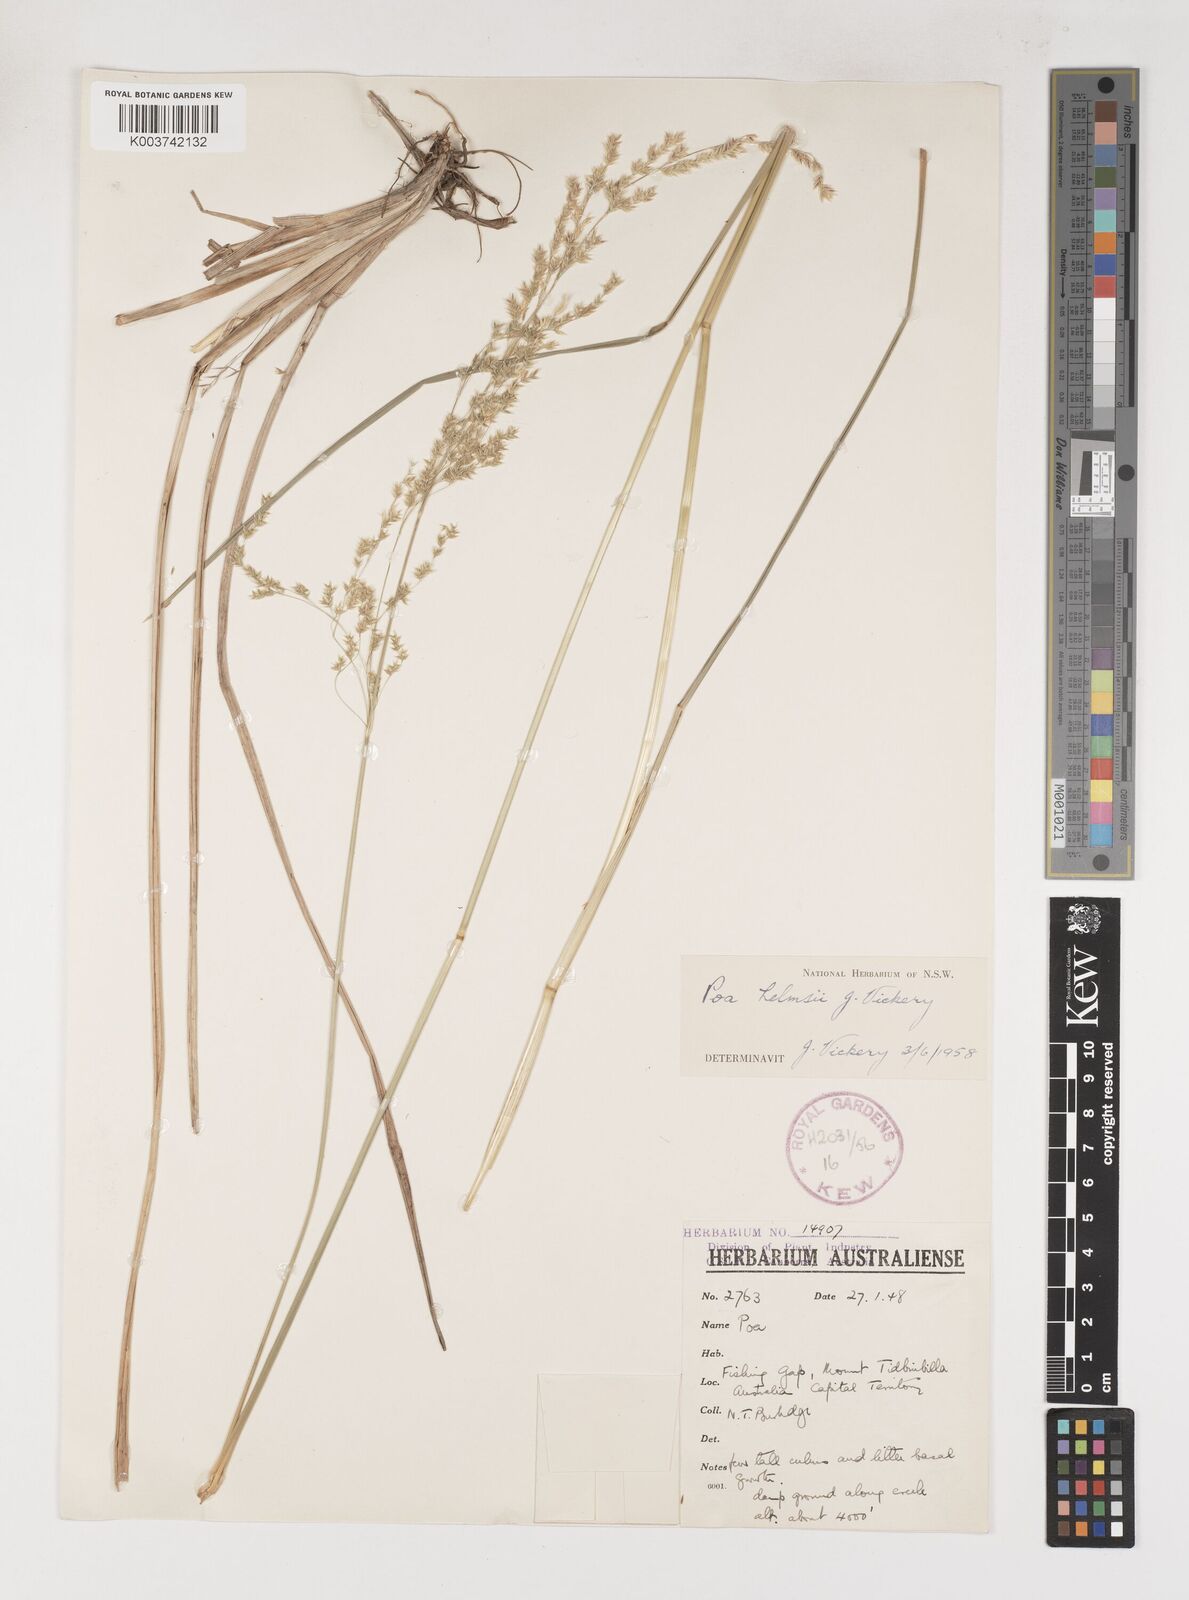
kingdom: Plantae
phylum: Tracheophyta
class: Liliopsida
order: Poales
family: Poaceae
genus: Poa
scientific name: Poa helmsii
